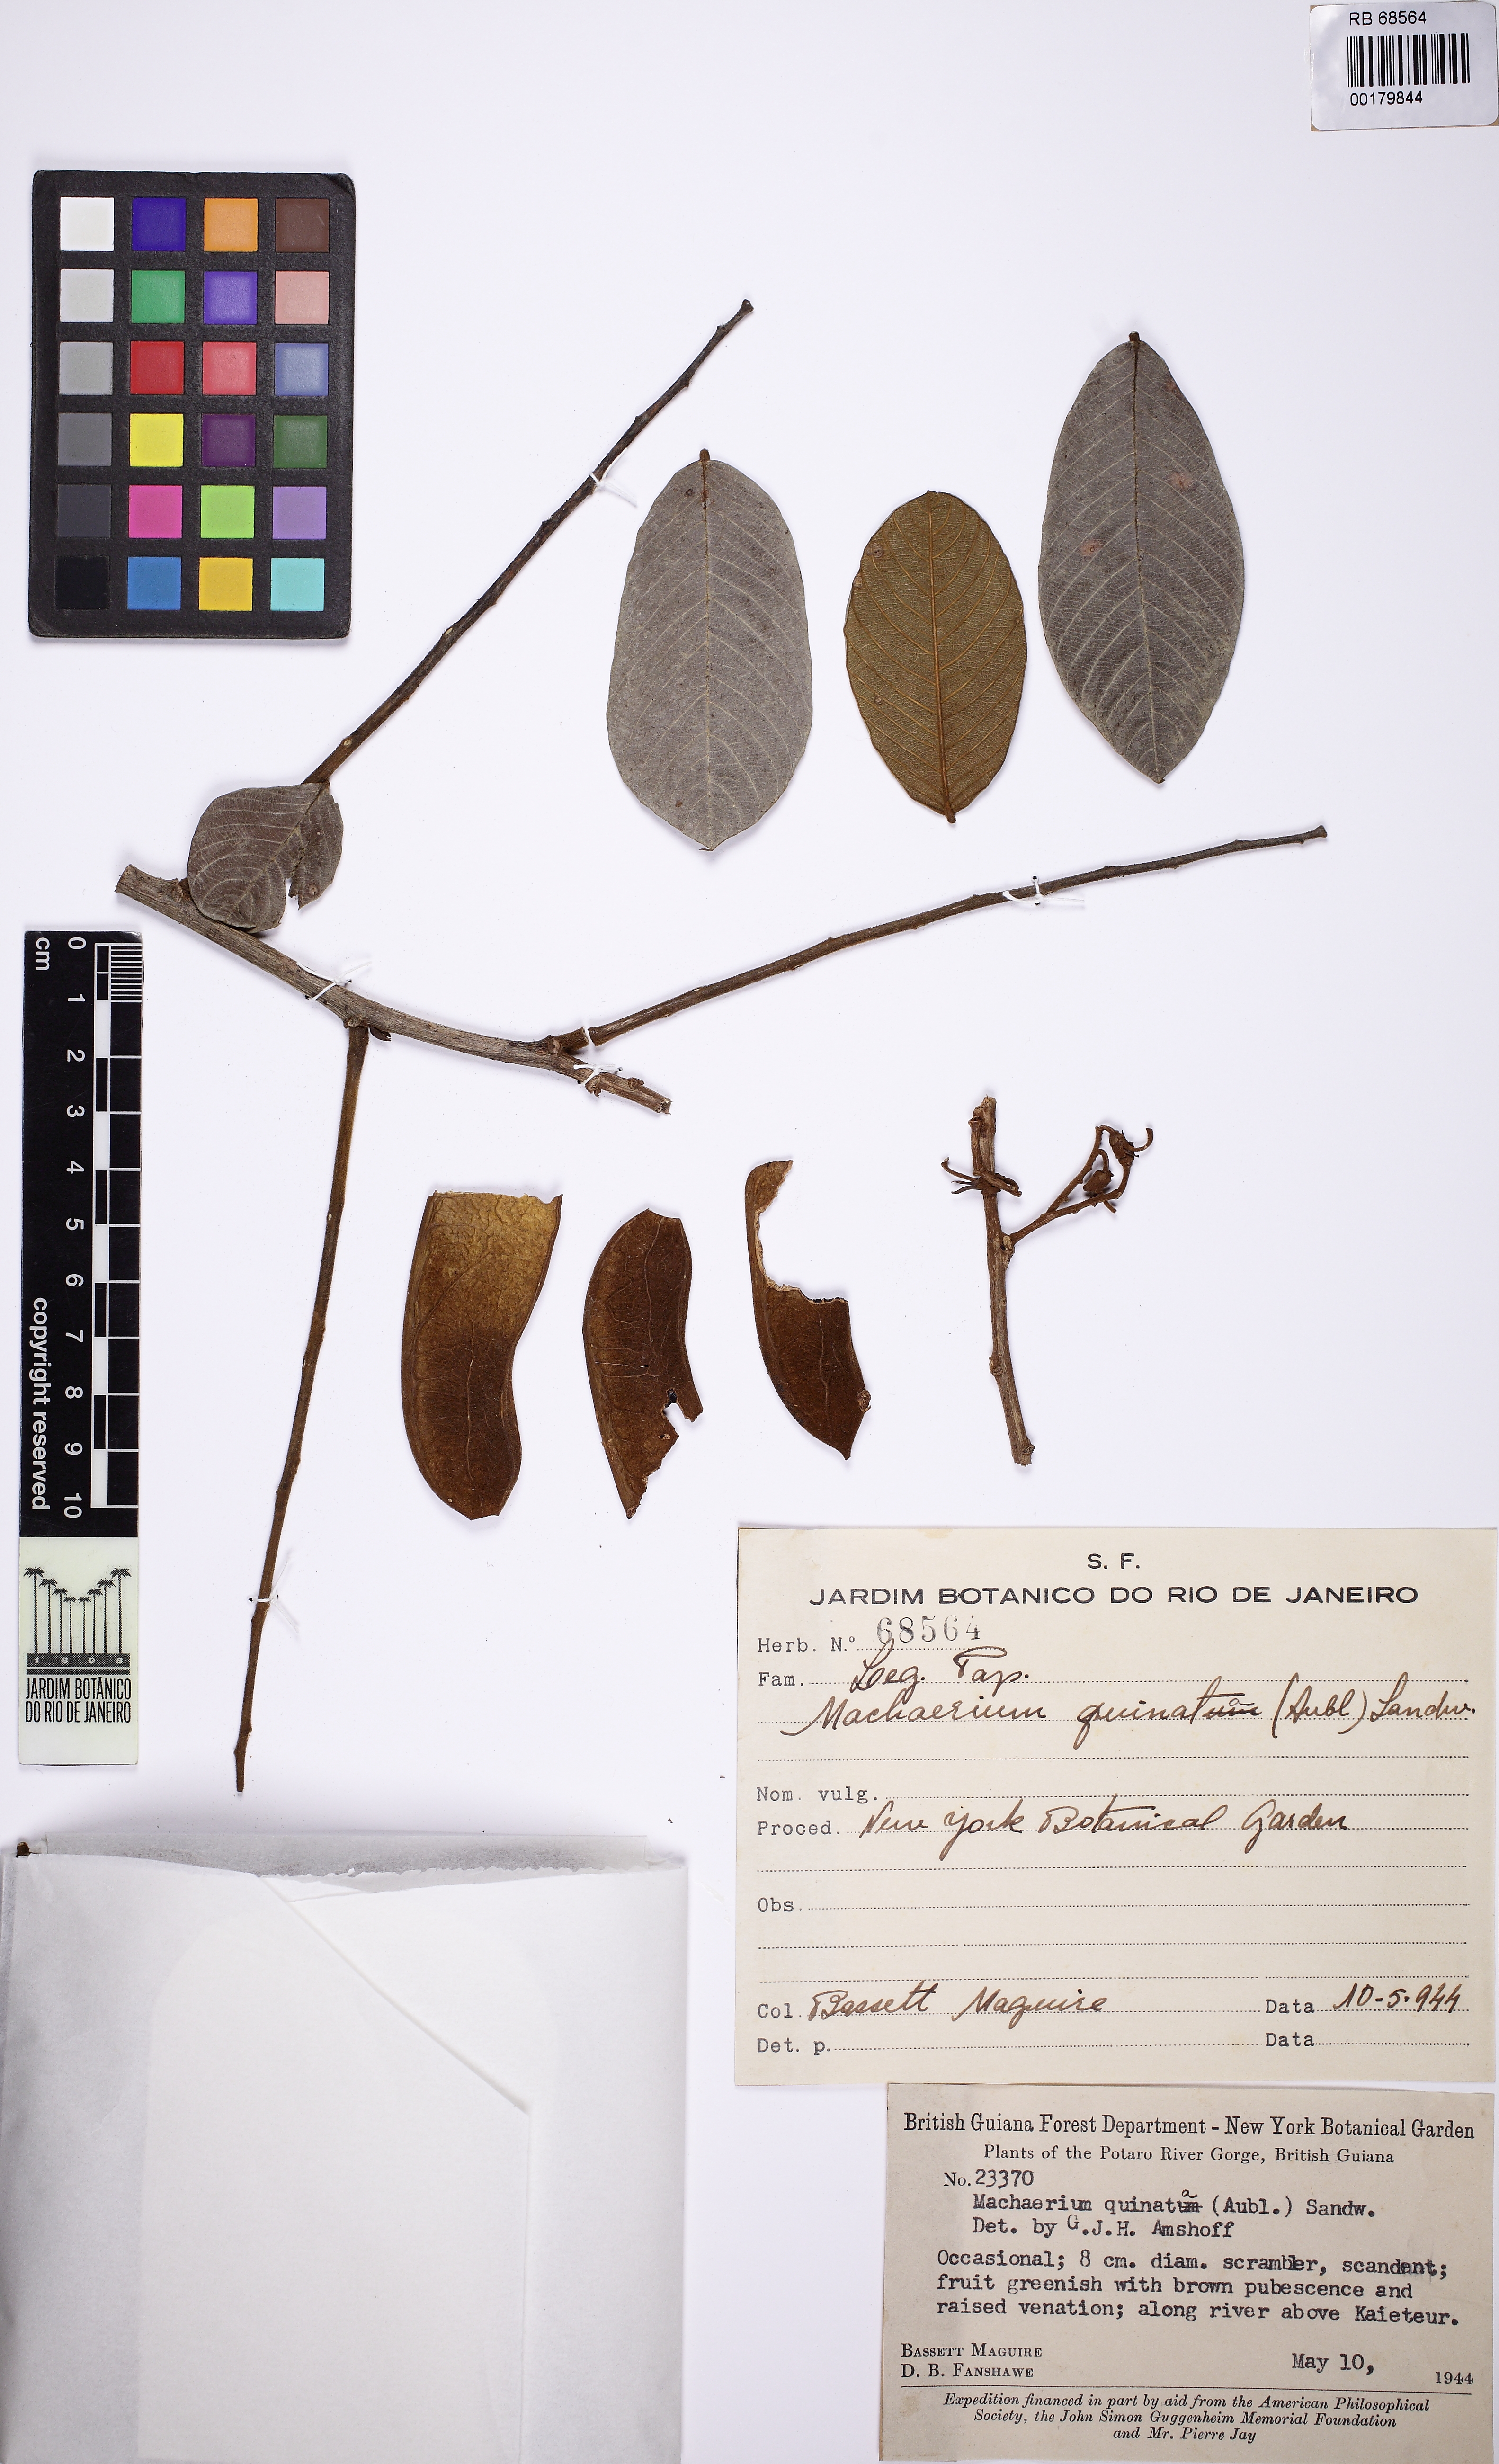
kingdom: Plantae
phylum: Tracheophyta
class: Magnoliopsida
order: Fabales
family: Fabaceae
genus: Machaerium
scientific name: Machaerium quinata
